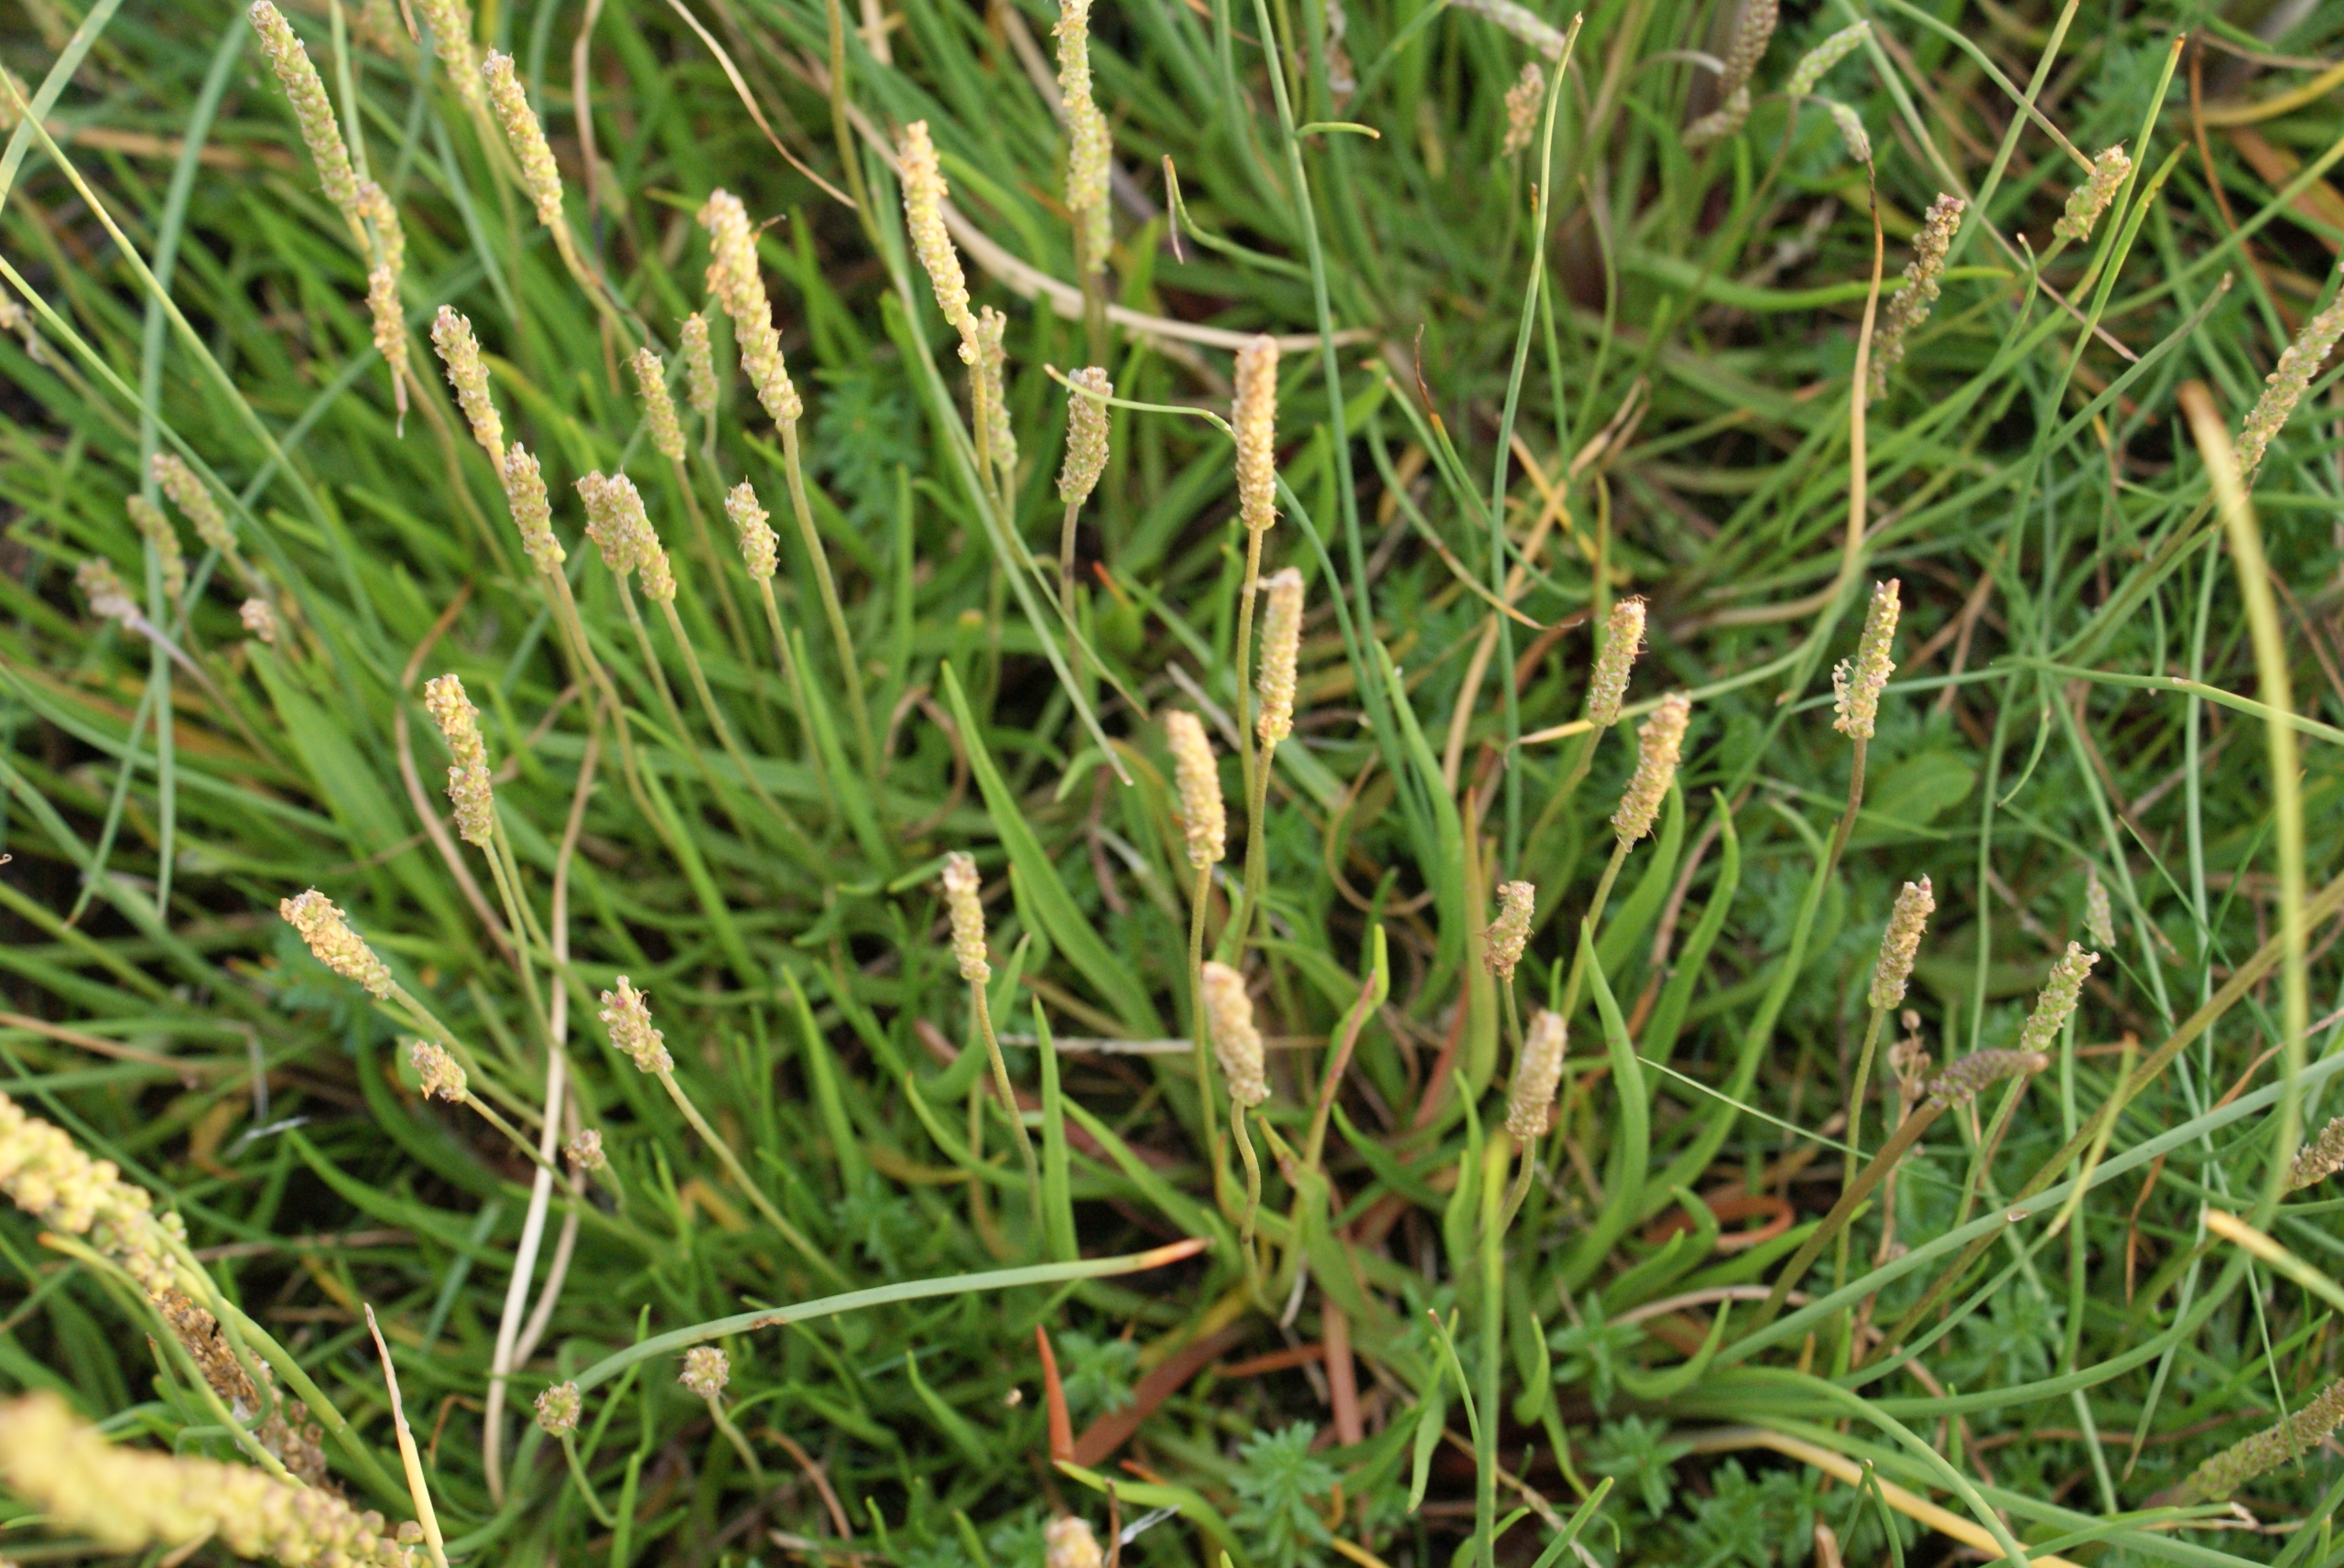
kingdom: Plantae
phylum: Tracheophyta
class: Magnoliopsida
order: Lamiales
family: Plantaginaceae
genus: Plantago
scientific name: Plantago maritima
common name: Strand-vejbred
